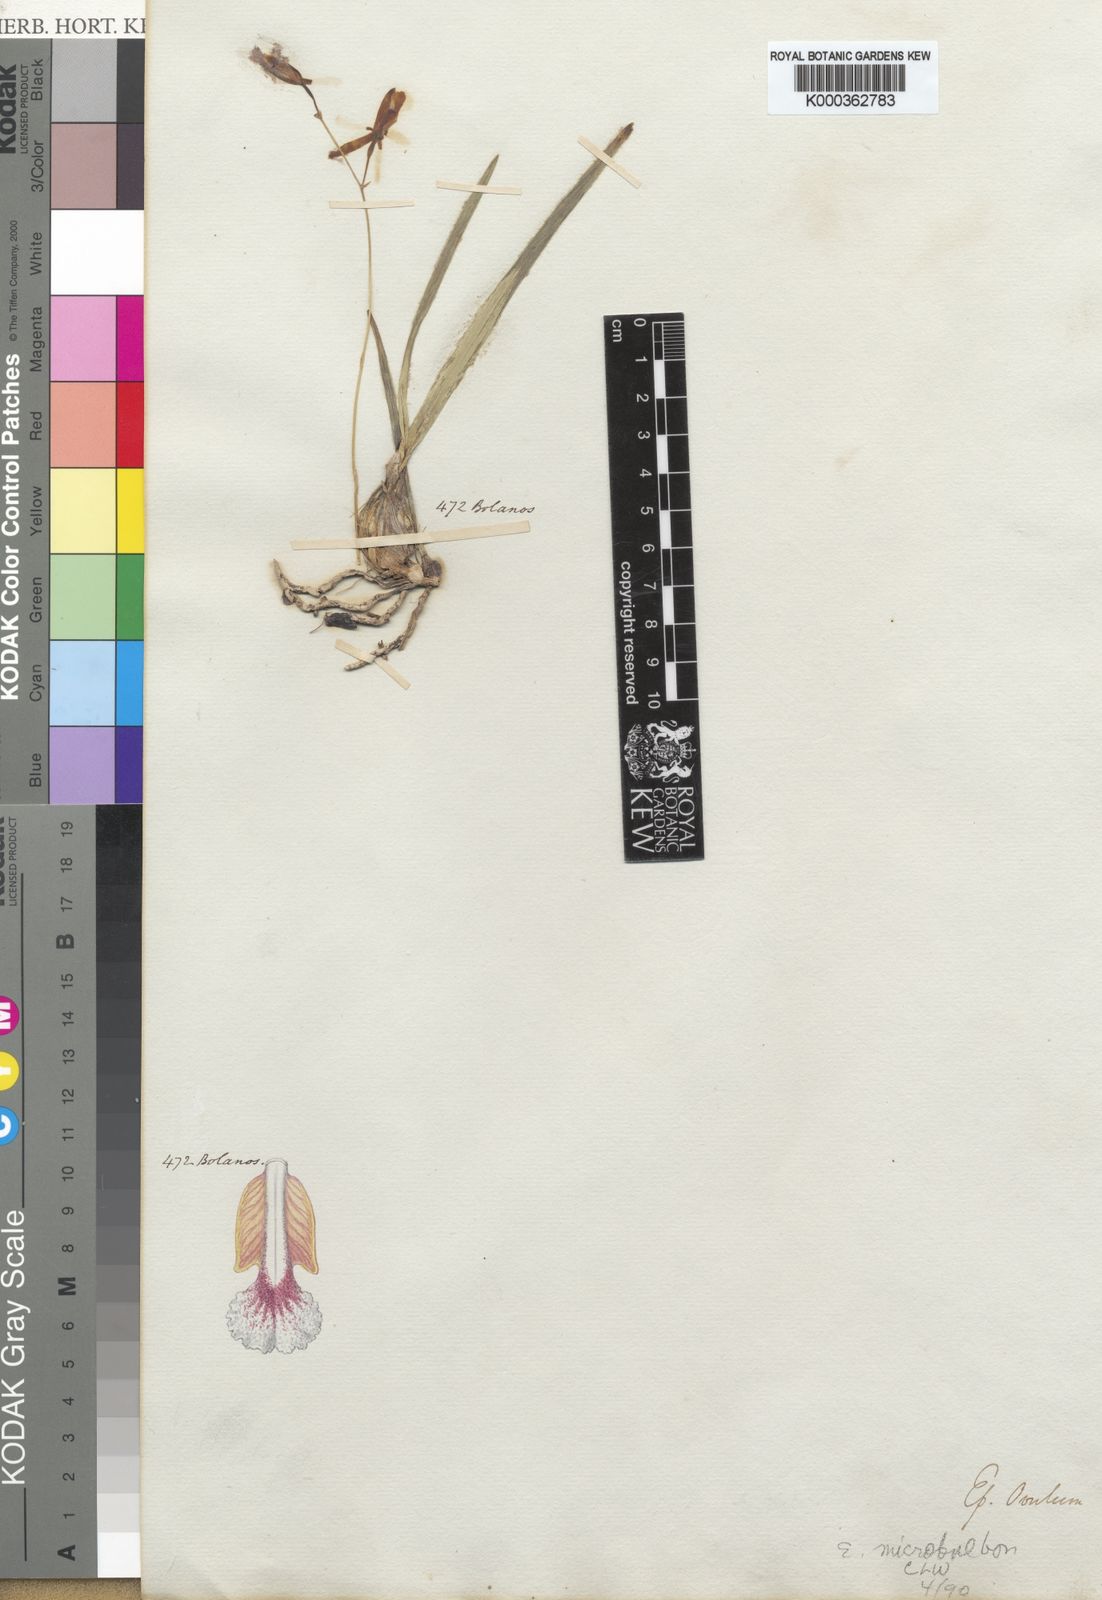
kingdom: Plantae
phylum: Tracheophyta
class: Liliopsida
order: Asparagales
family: Orchidaceae
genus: Encyclia
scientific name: Encyclia microbulbon
